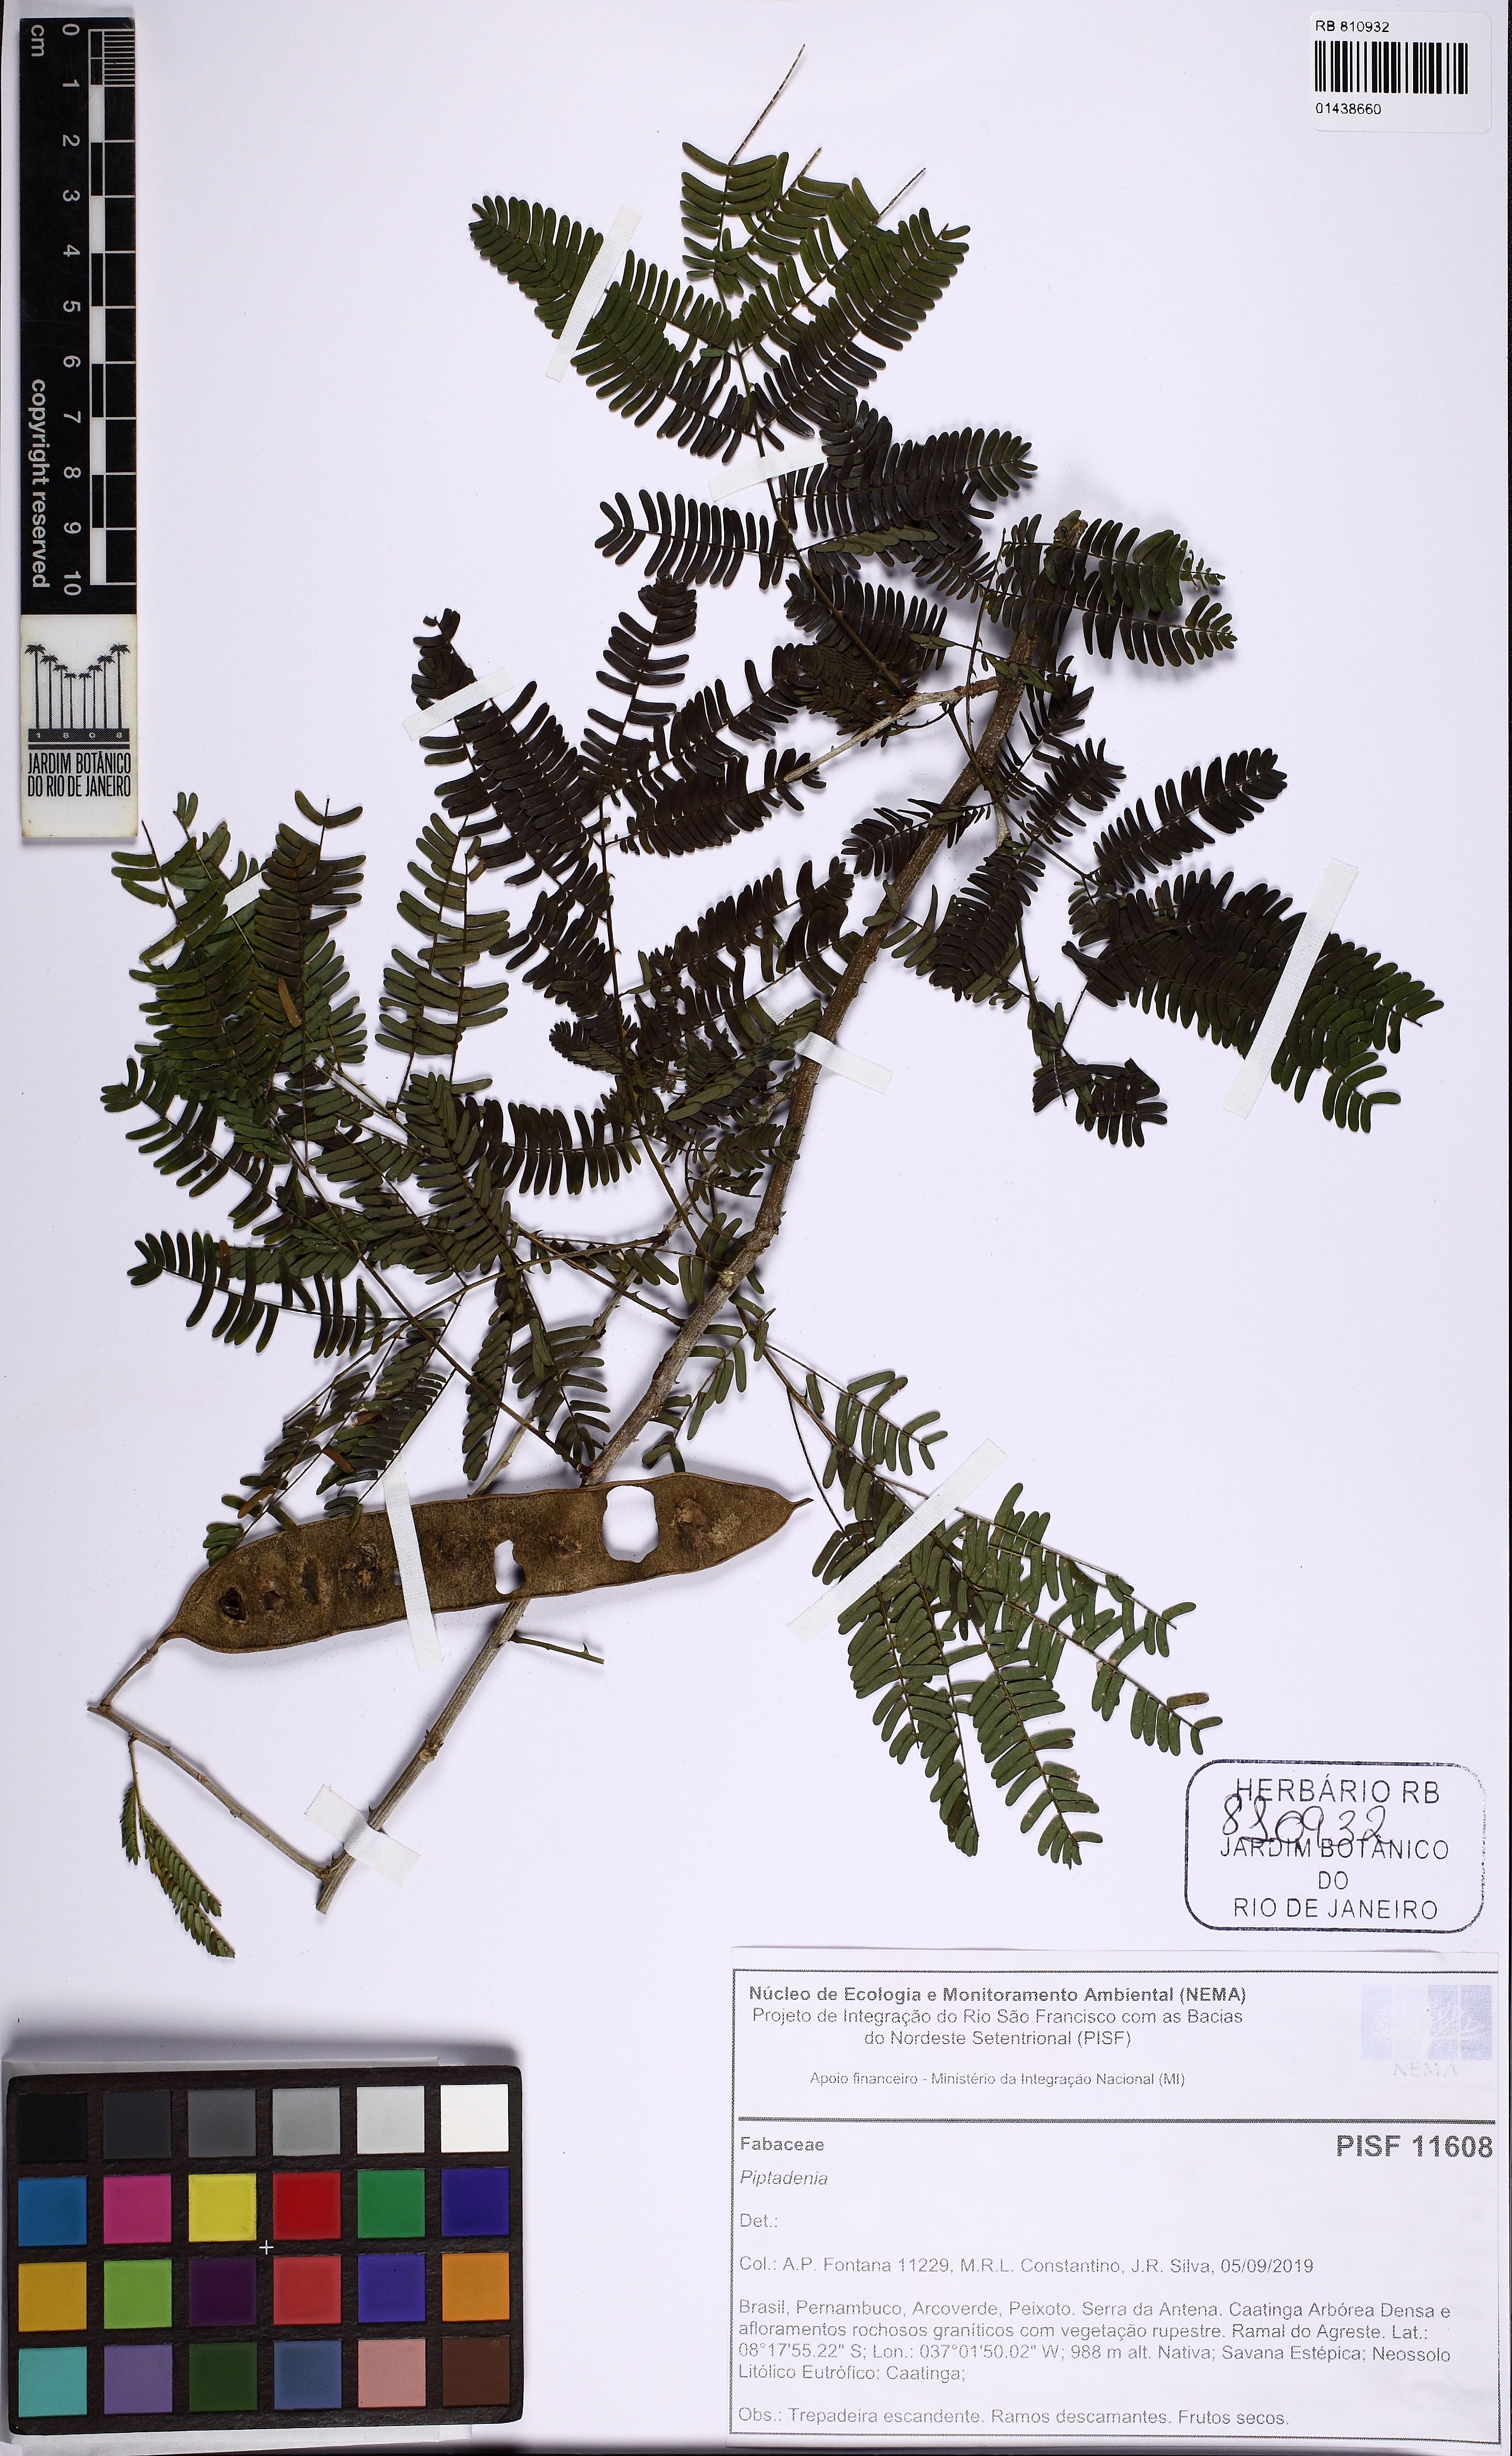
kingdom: Plantae
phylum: Tracheophyta
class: Magnoliopsida
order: Fabales
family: Fabaceae
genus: Piptadenia
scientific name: Piptadenia
